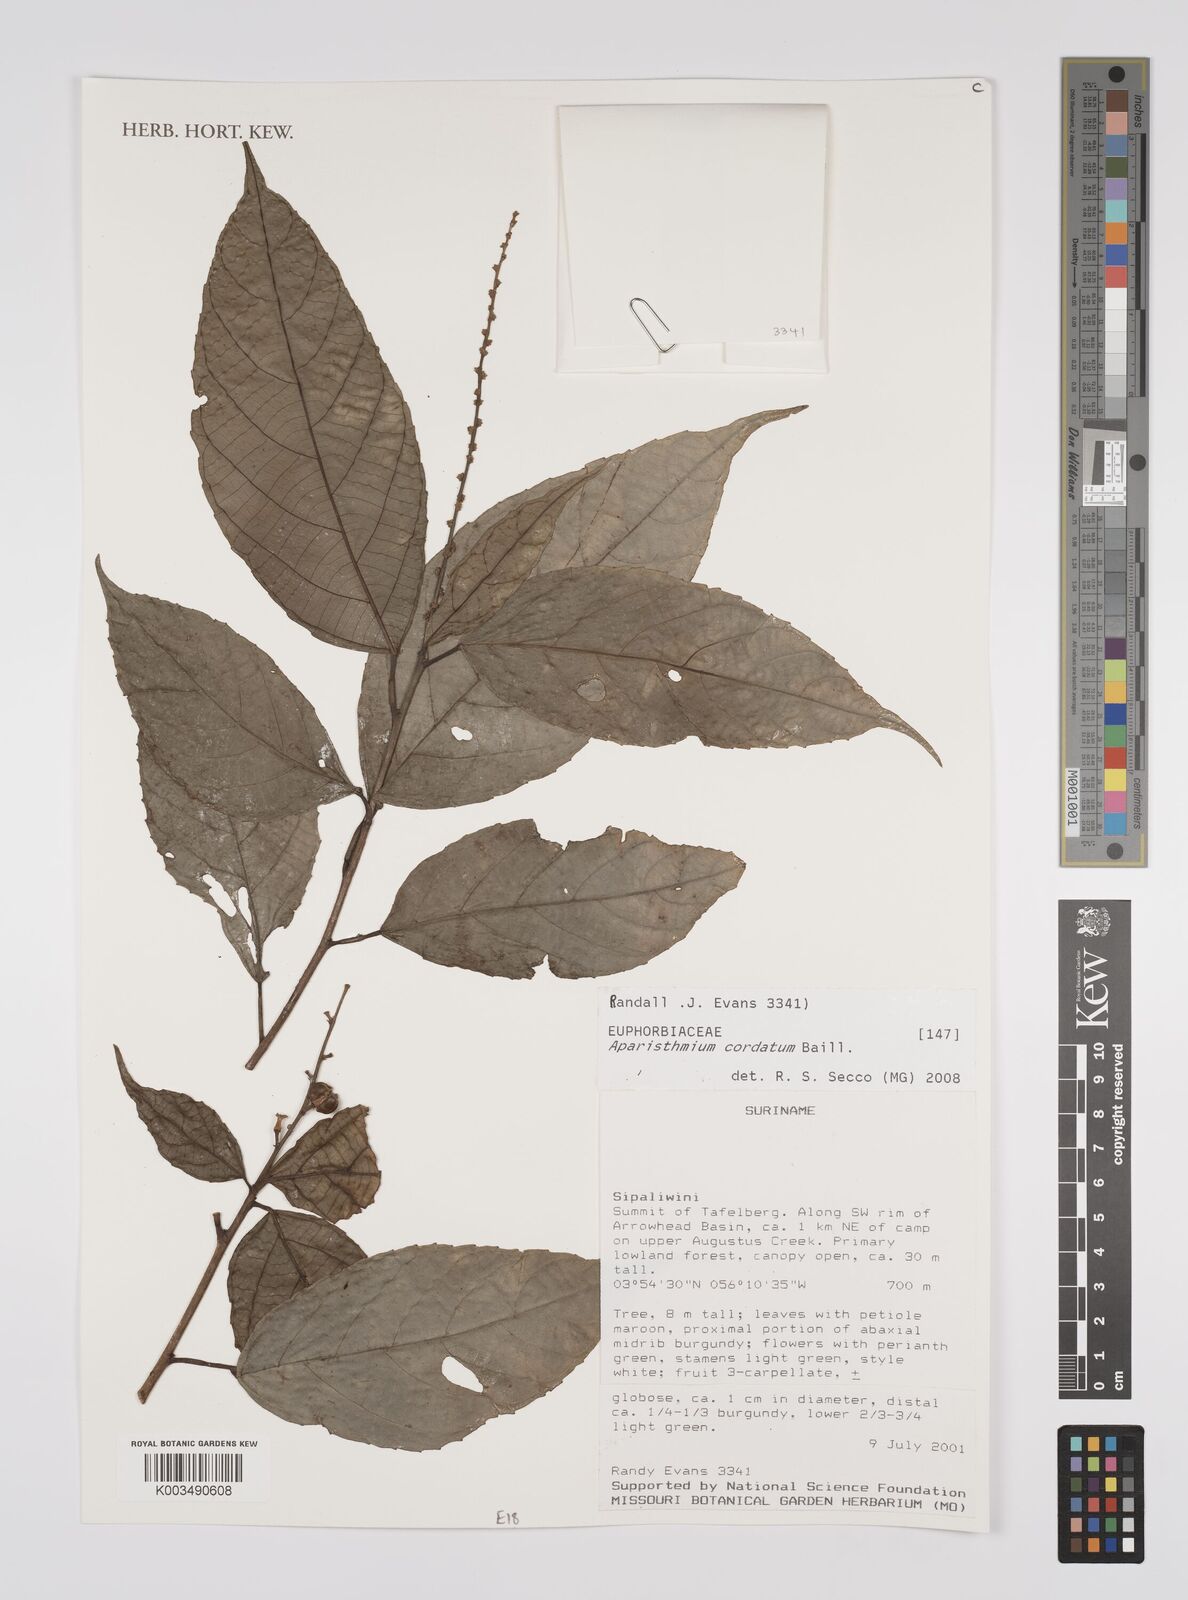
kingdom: Plantae
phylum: Tracheophyta
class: Magnoliopsida
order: Malpighiales
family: Euphorbiaceae
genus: Aparisthmium
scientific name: Aparisthmium cordatum
